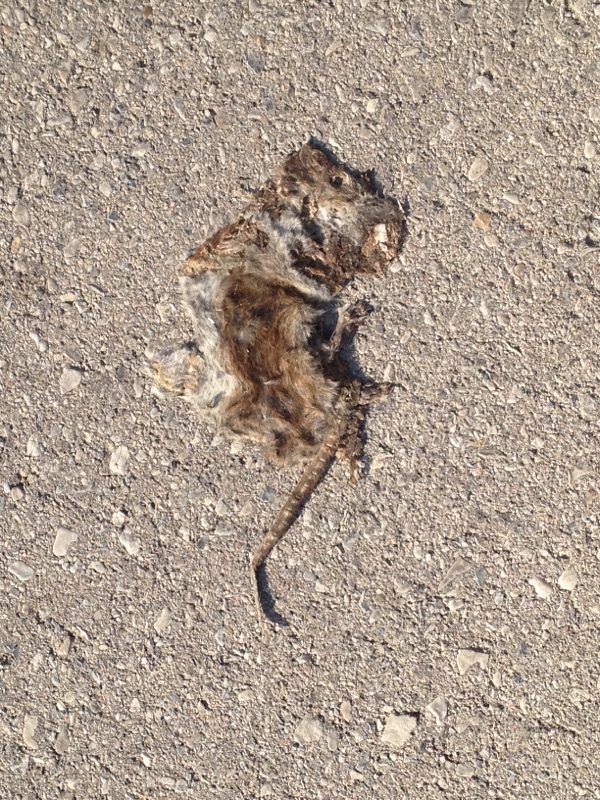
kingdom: Animalia
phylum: Chordata
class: Mammalia
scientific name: Mammalia
